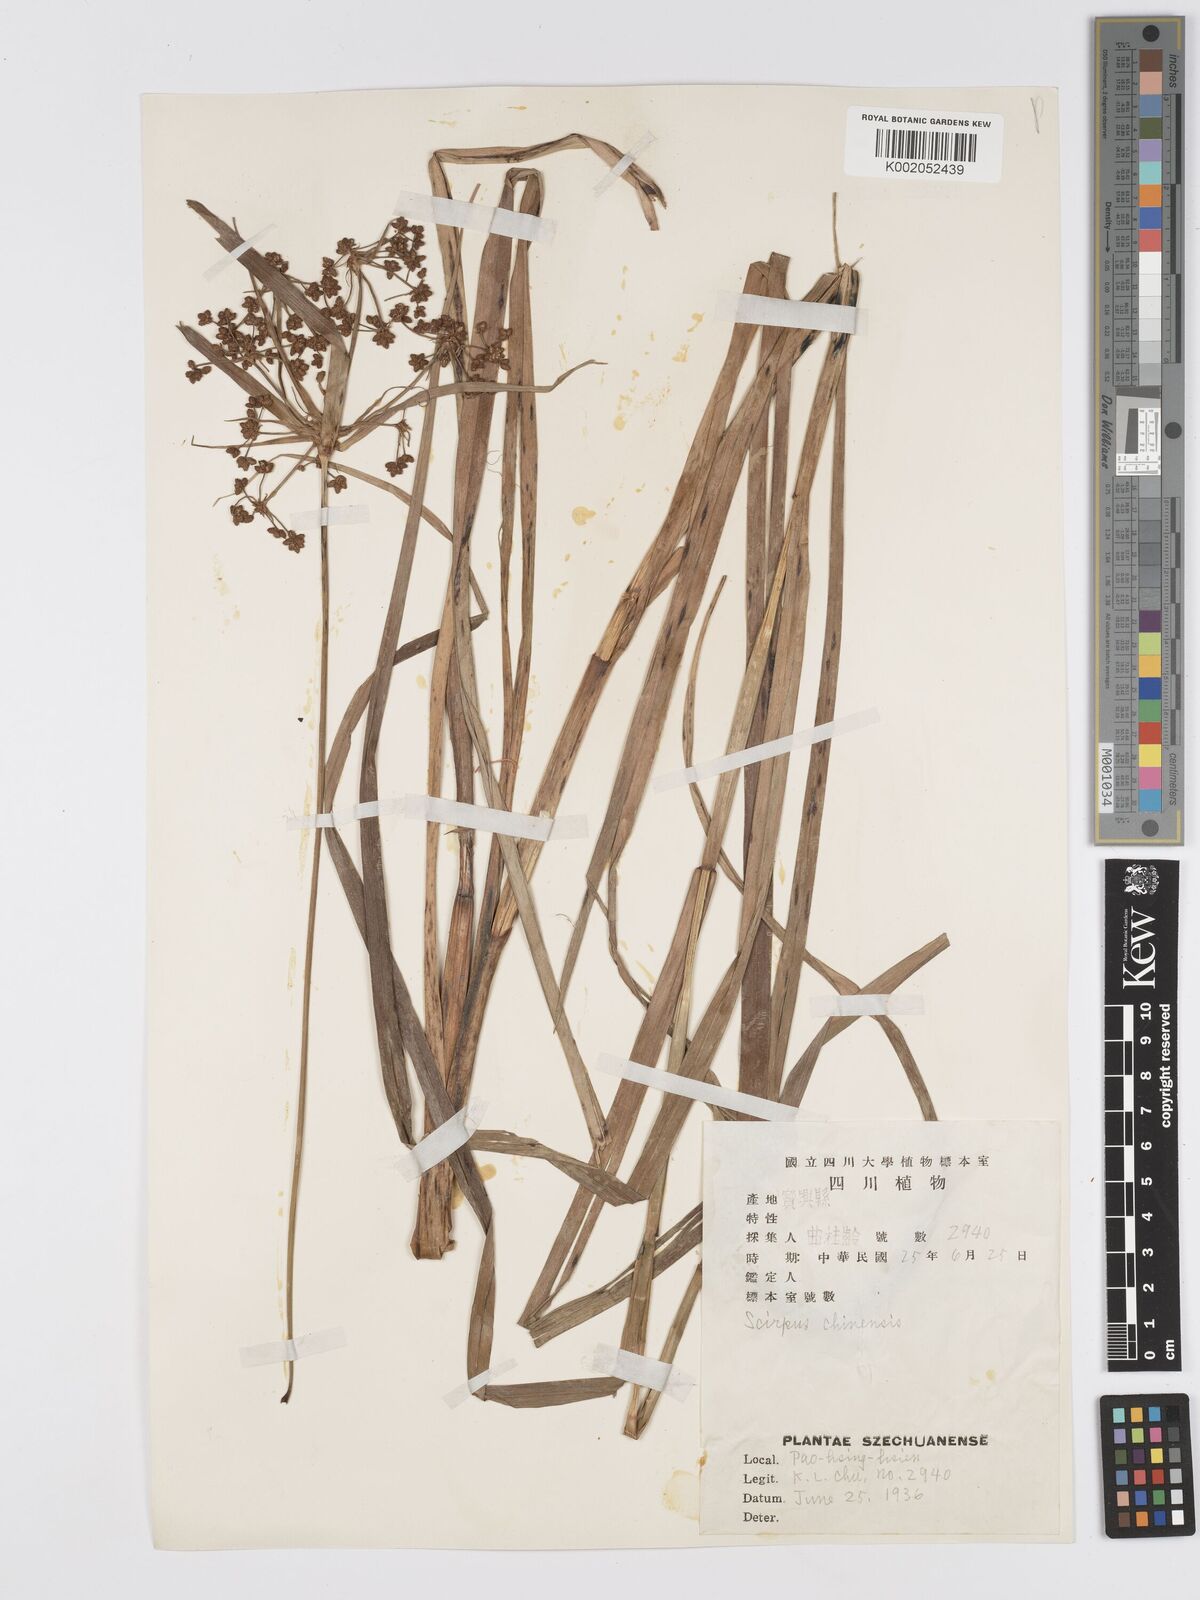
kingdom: Plantae
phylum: Tracheophyta
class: Liliopsida
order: Poales
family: Cyperaceae
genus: Scirpus
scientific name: Scirpus ternatanus
